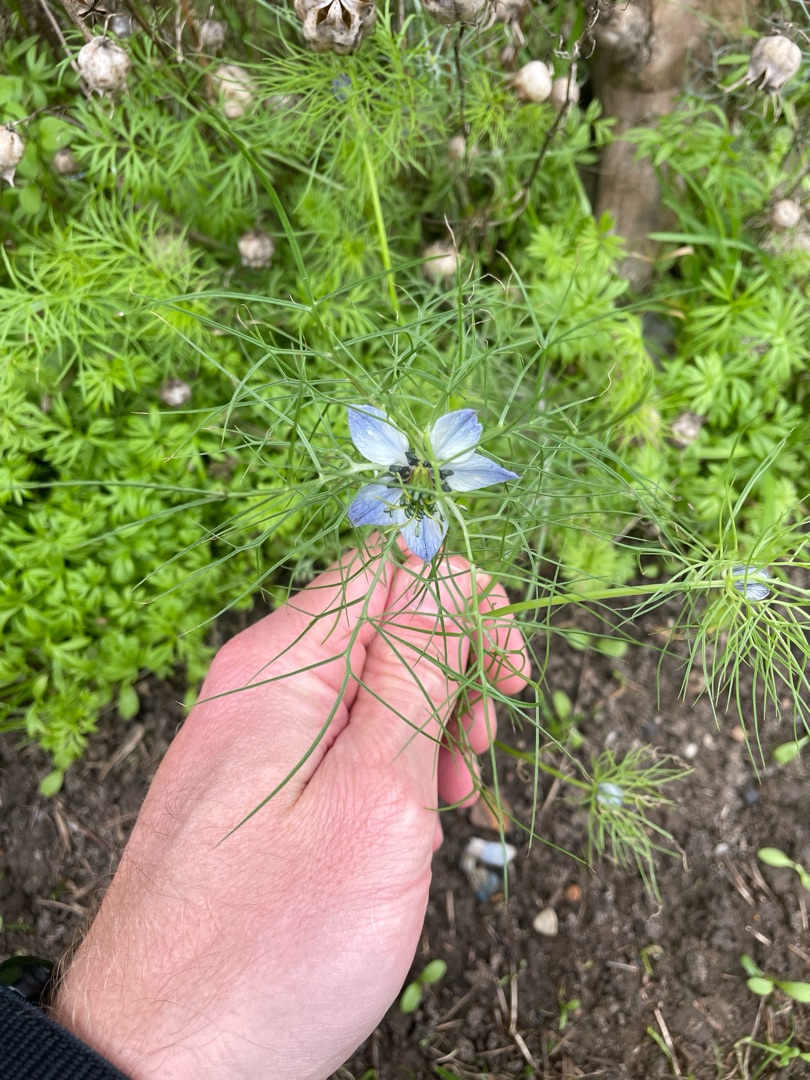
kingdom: Plantae
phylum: Tracheophyta
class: Magnoliopsida
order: Ranunculales
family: Ranunculaceae
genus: Nigella
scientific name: Nigella damascena
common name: Jomfru i det grønne
